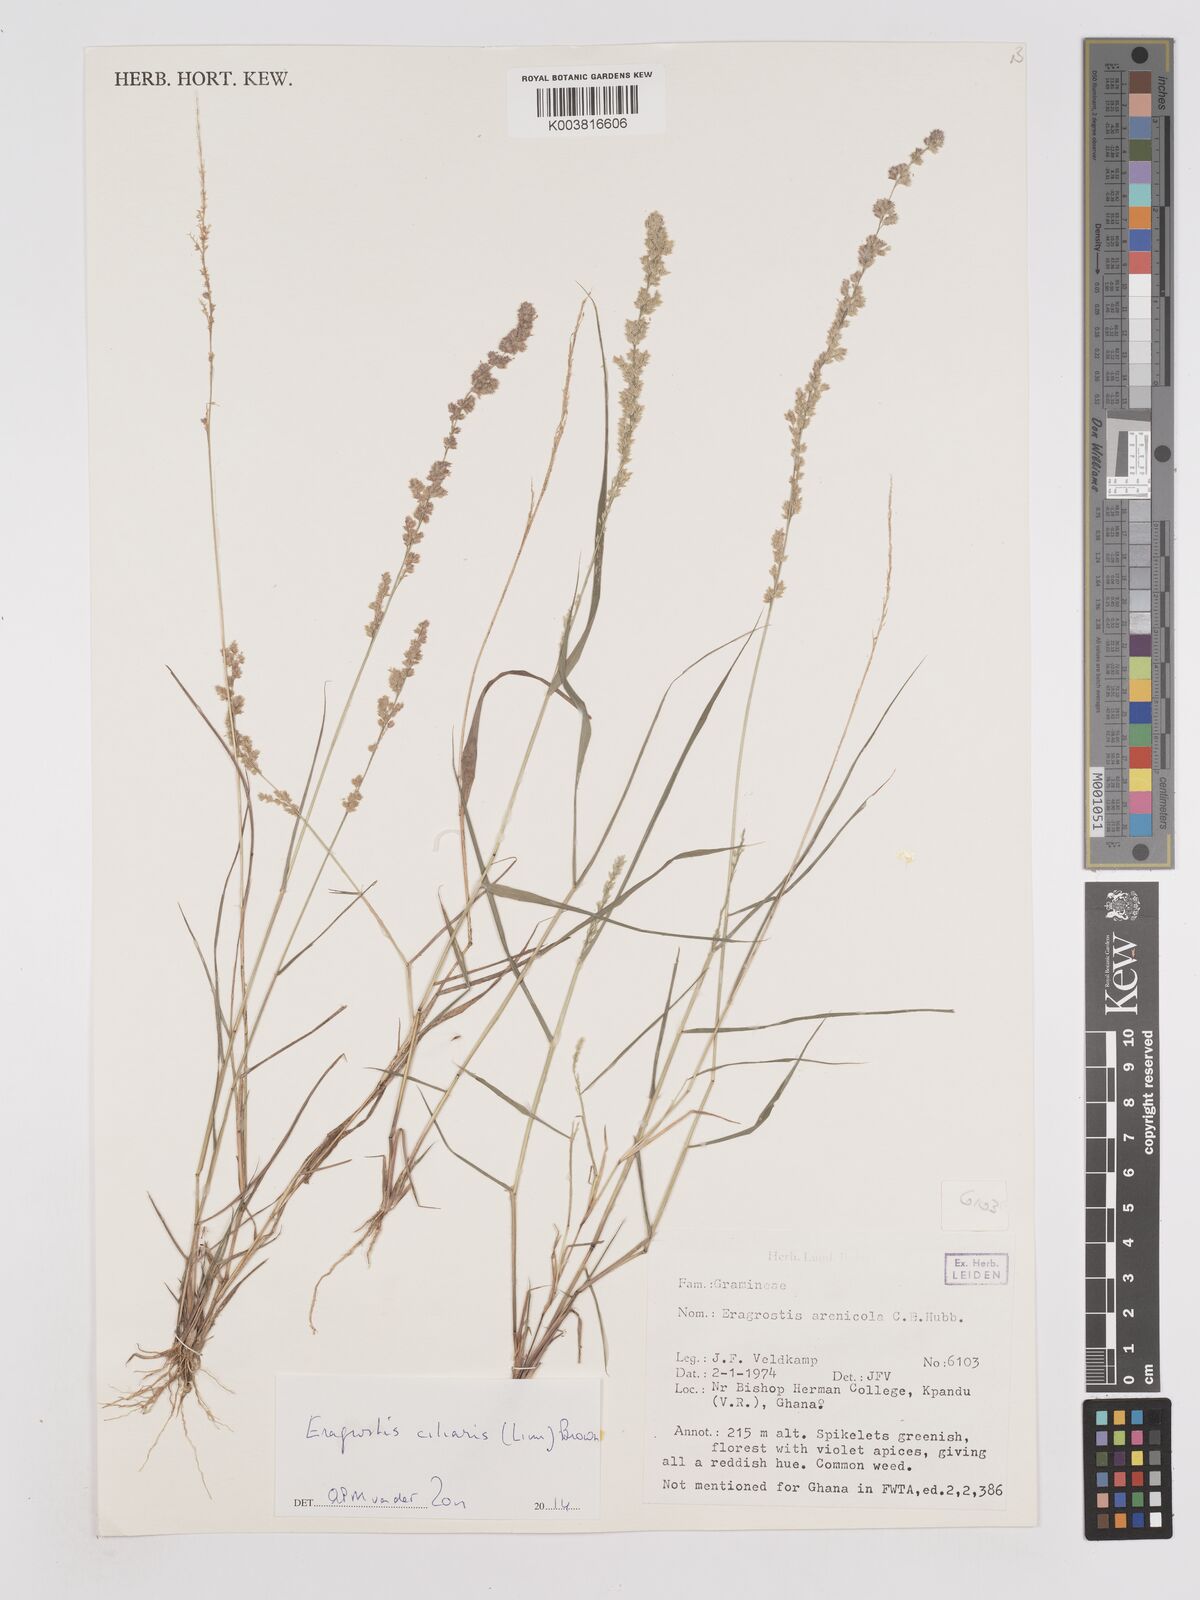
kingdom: Plantae
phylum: Tracheophyta
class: Liliopsida
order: Poales
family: Poaceae
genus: Eragrostis
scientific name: Eragrostis ciliaris
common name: Gophertail lovegrass
